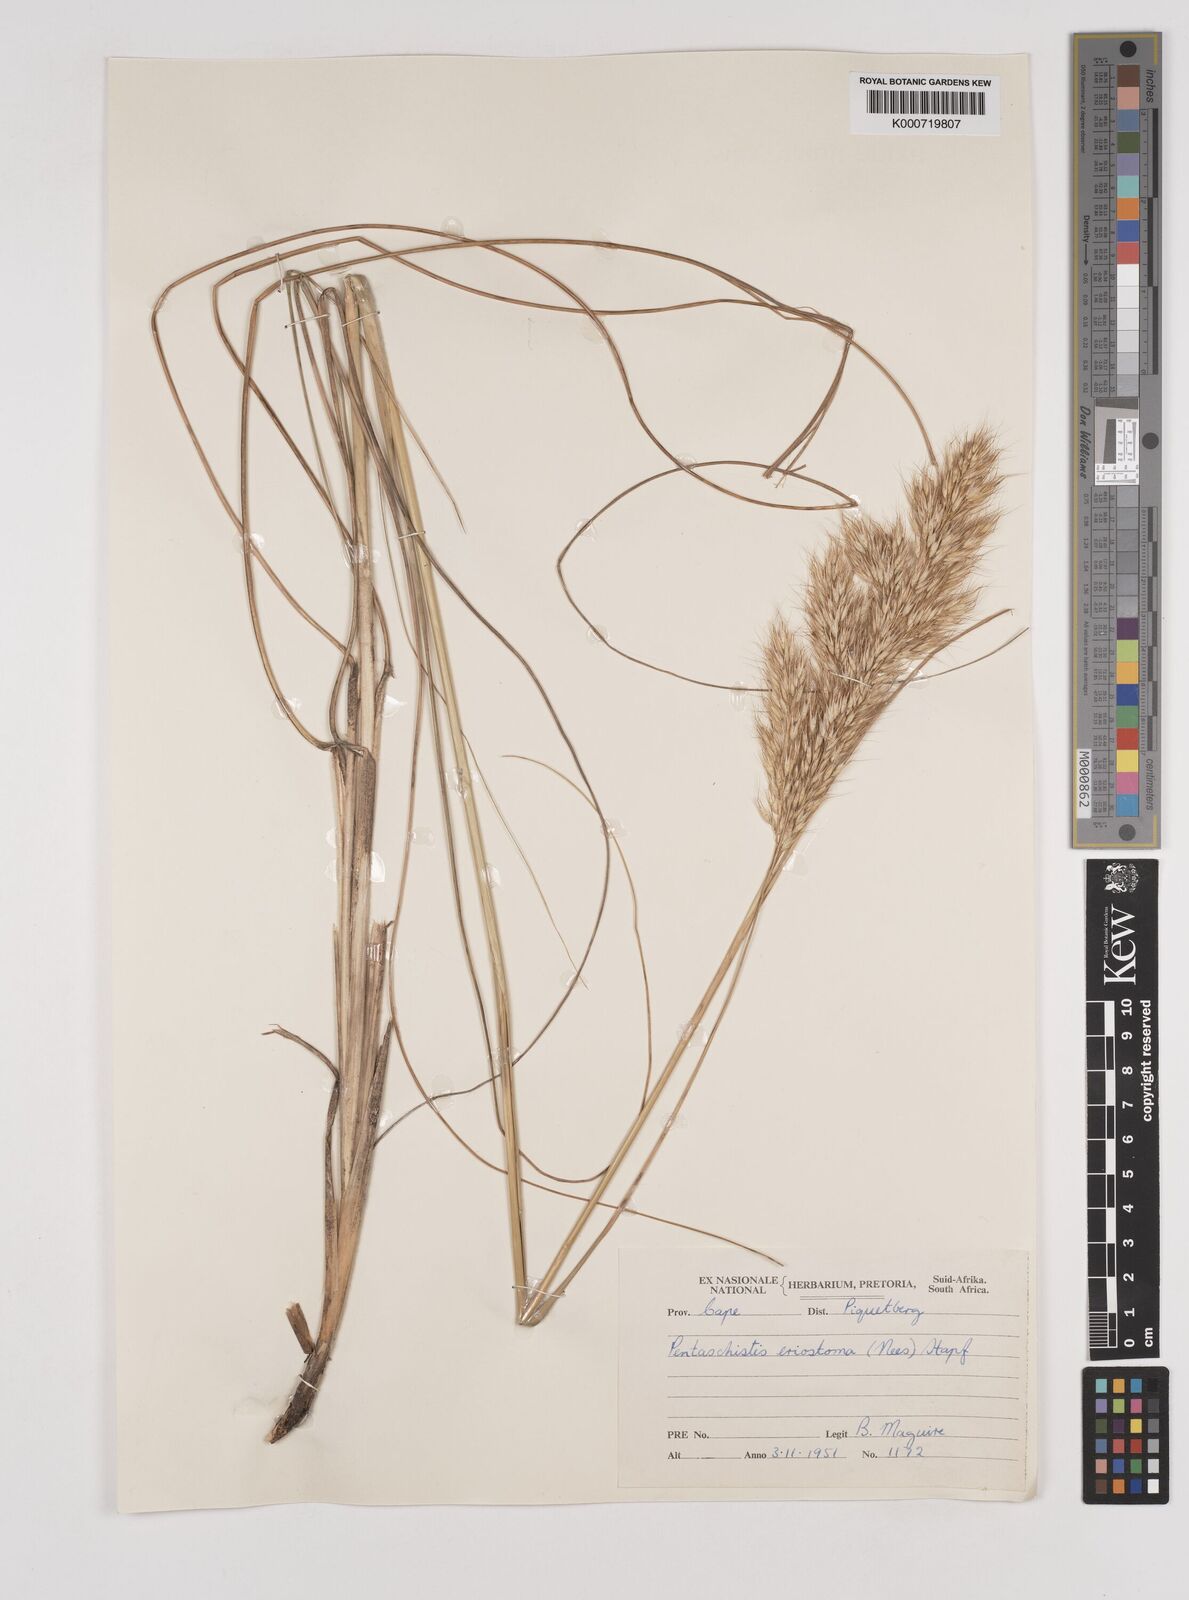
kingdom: Plantae
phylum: Tracheophyta
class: Liliopsida
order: Poales
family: Poaceae
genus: Pentameris
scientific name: Pentameris eriostoma
